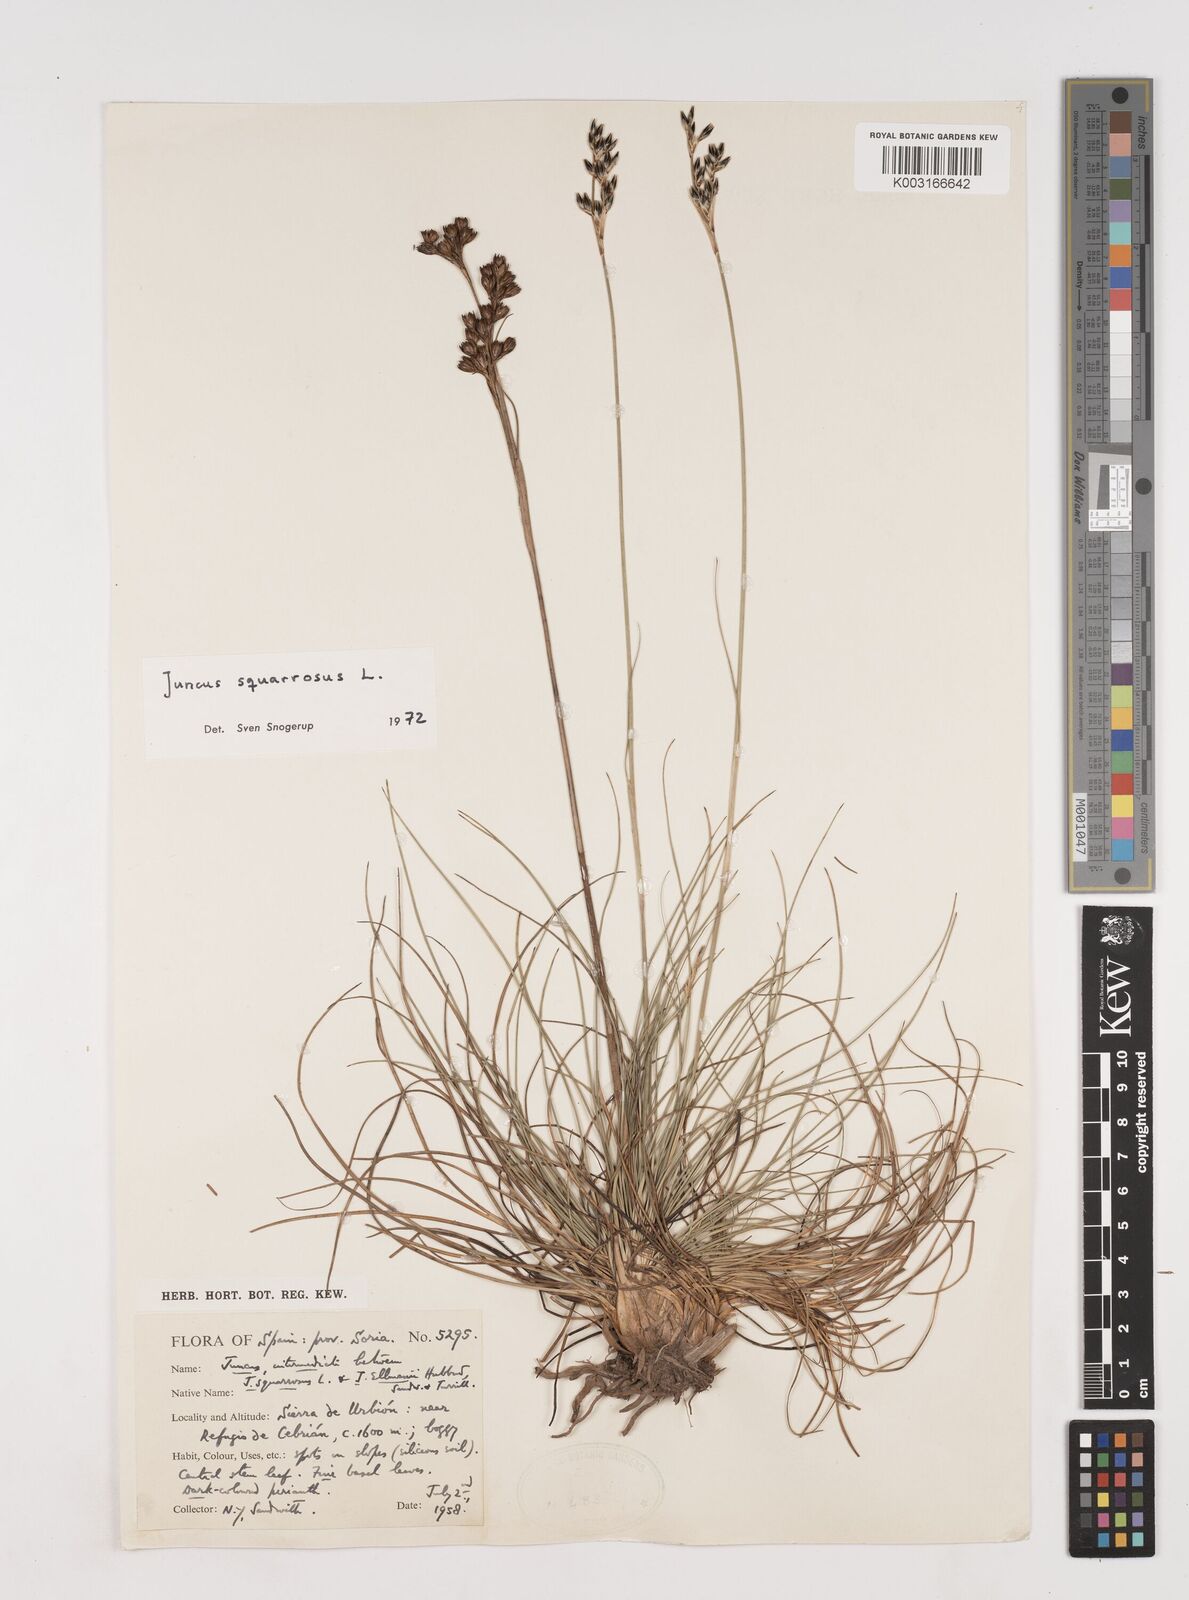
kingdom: Plantae
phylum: Tracheophyta
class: Liliopsida
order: Poales
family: Juncaceae
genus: Juncus
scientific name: Juncus squarrosus
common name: Heath rush
